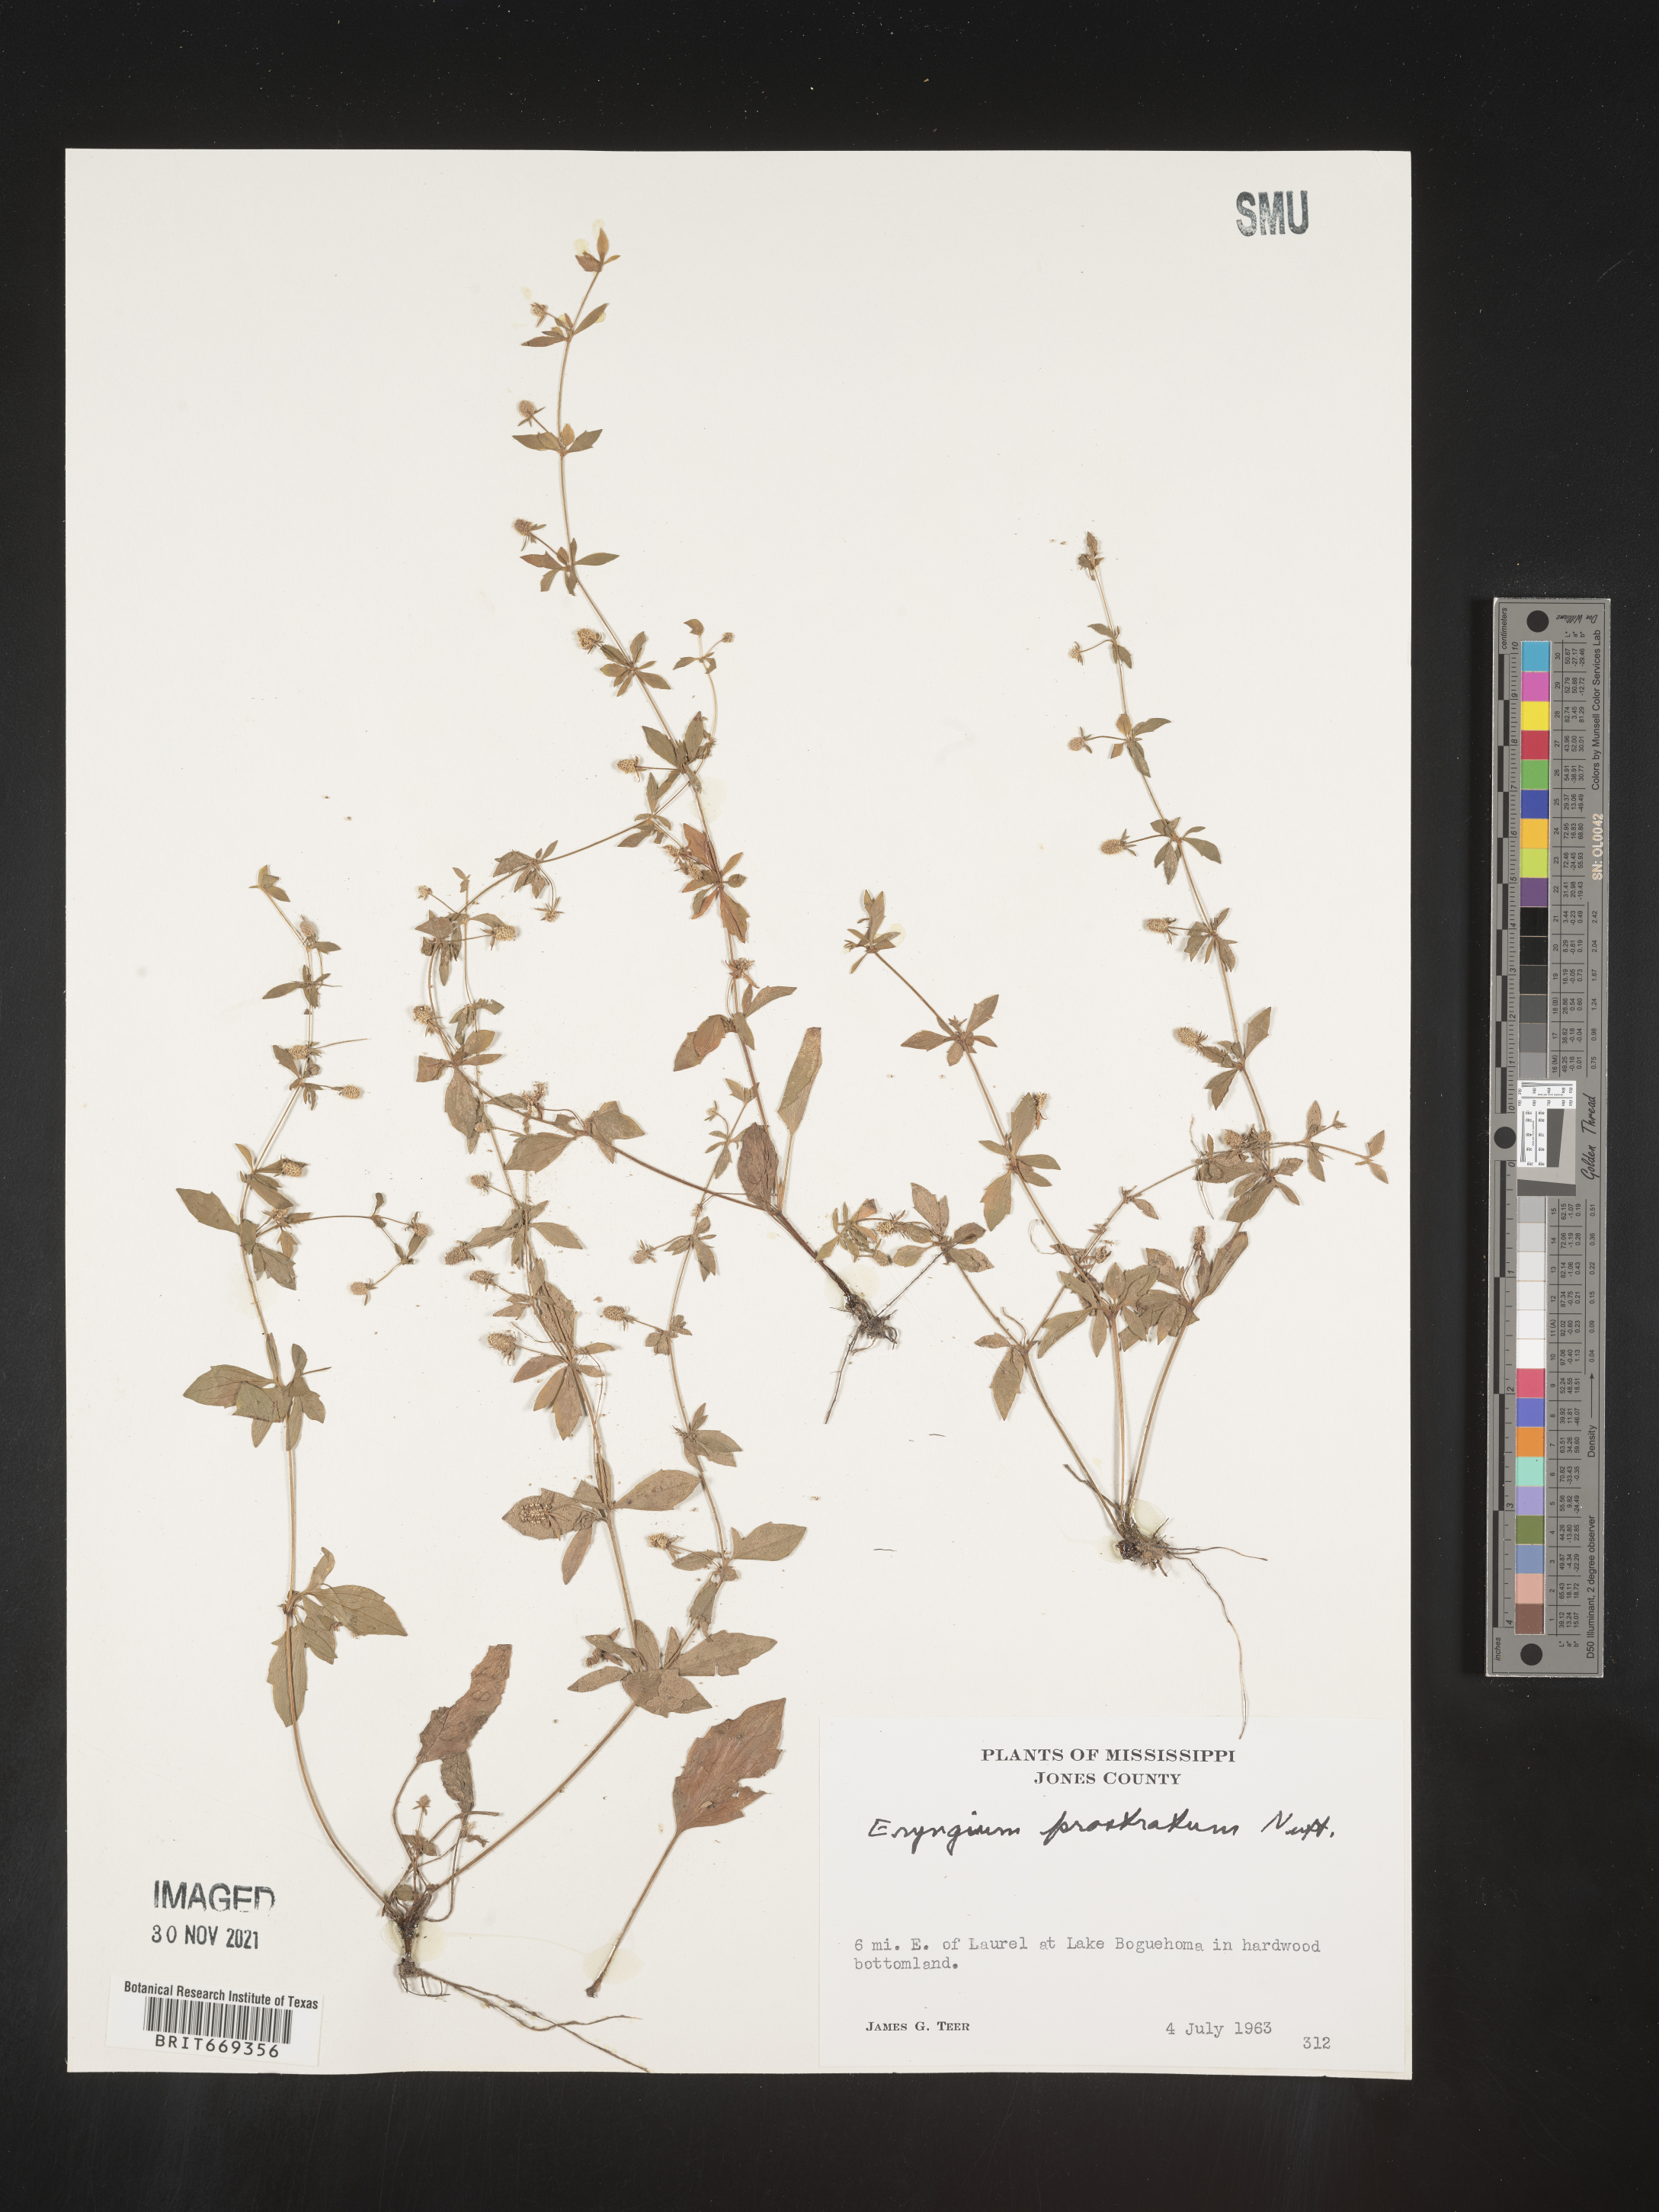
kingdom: Plantae
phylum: Tracheophyta
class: Magnoliopsida
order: Apiales
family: Apiaceae
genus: Eryngium
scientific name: Eryngium prostratum
